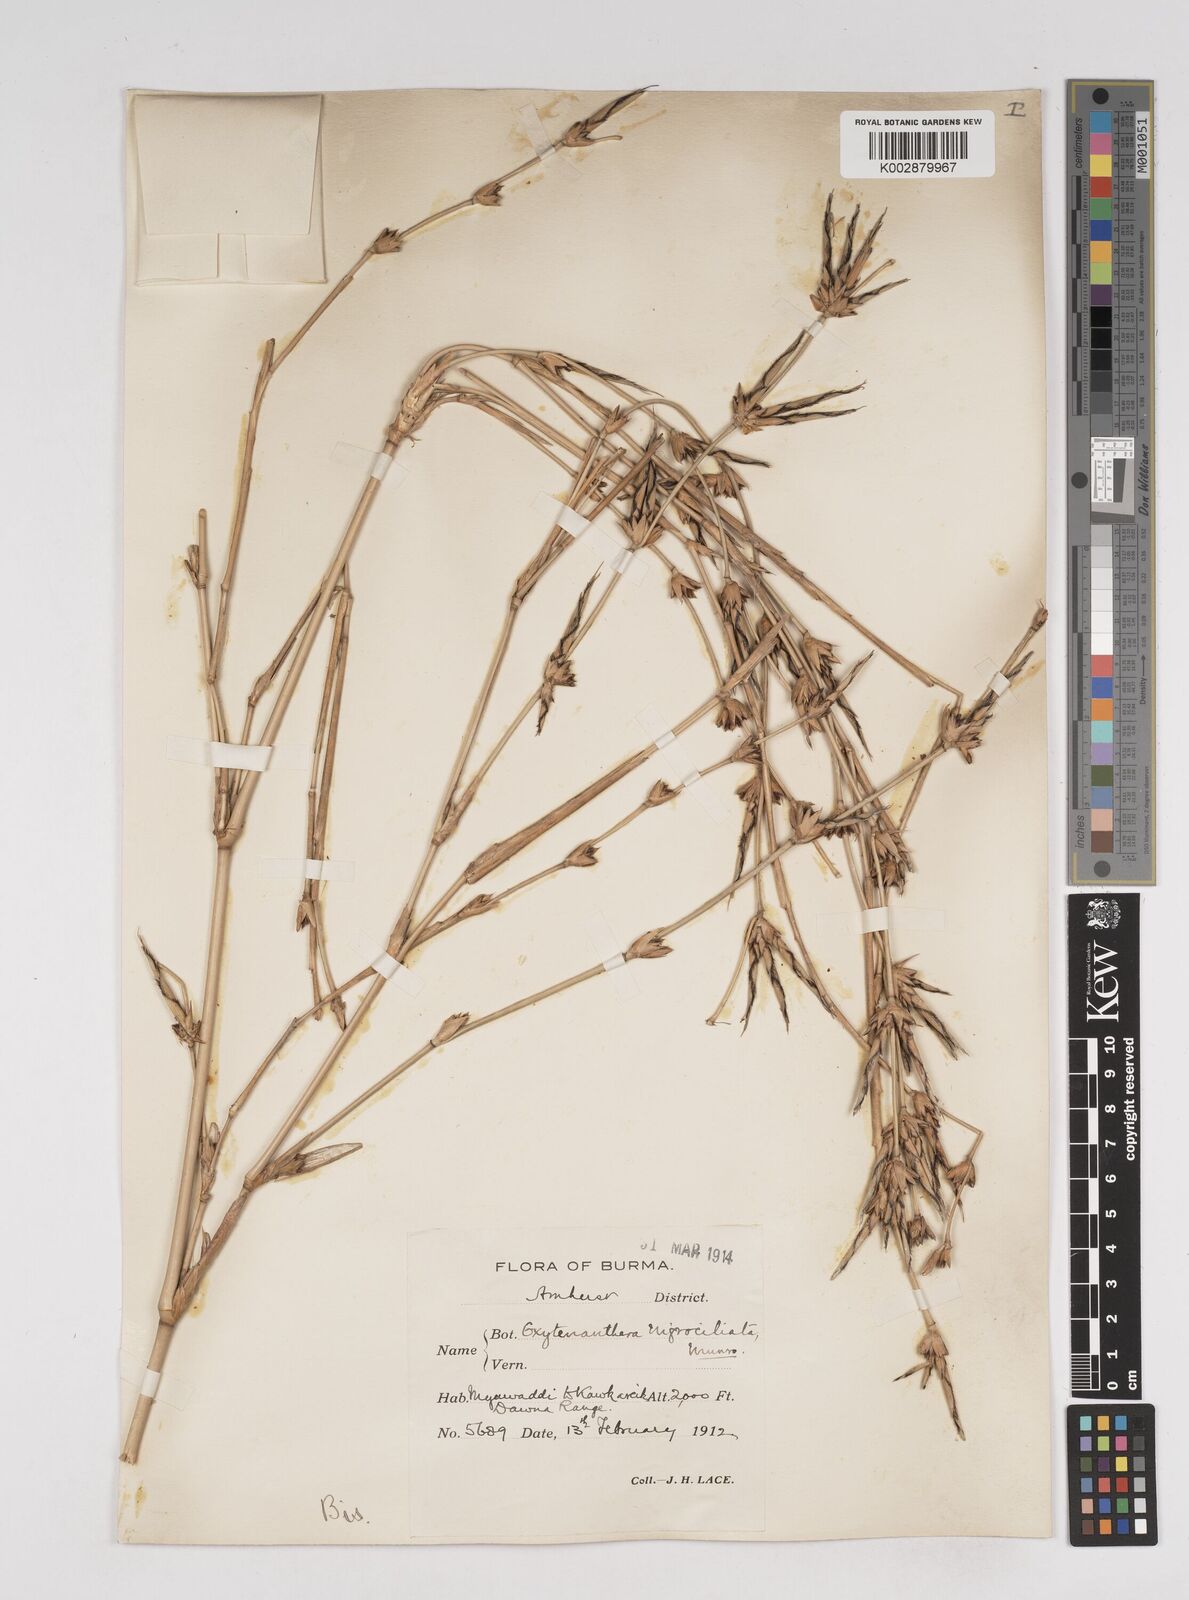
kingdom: Plantae
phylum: Tracheophyta
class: Liliopsida
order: Poales
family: Poaceae
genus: Gigantochloa
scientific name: Gigantochloa nigrociliata
